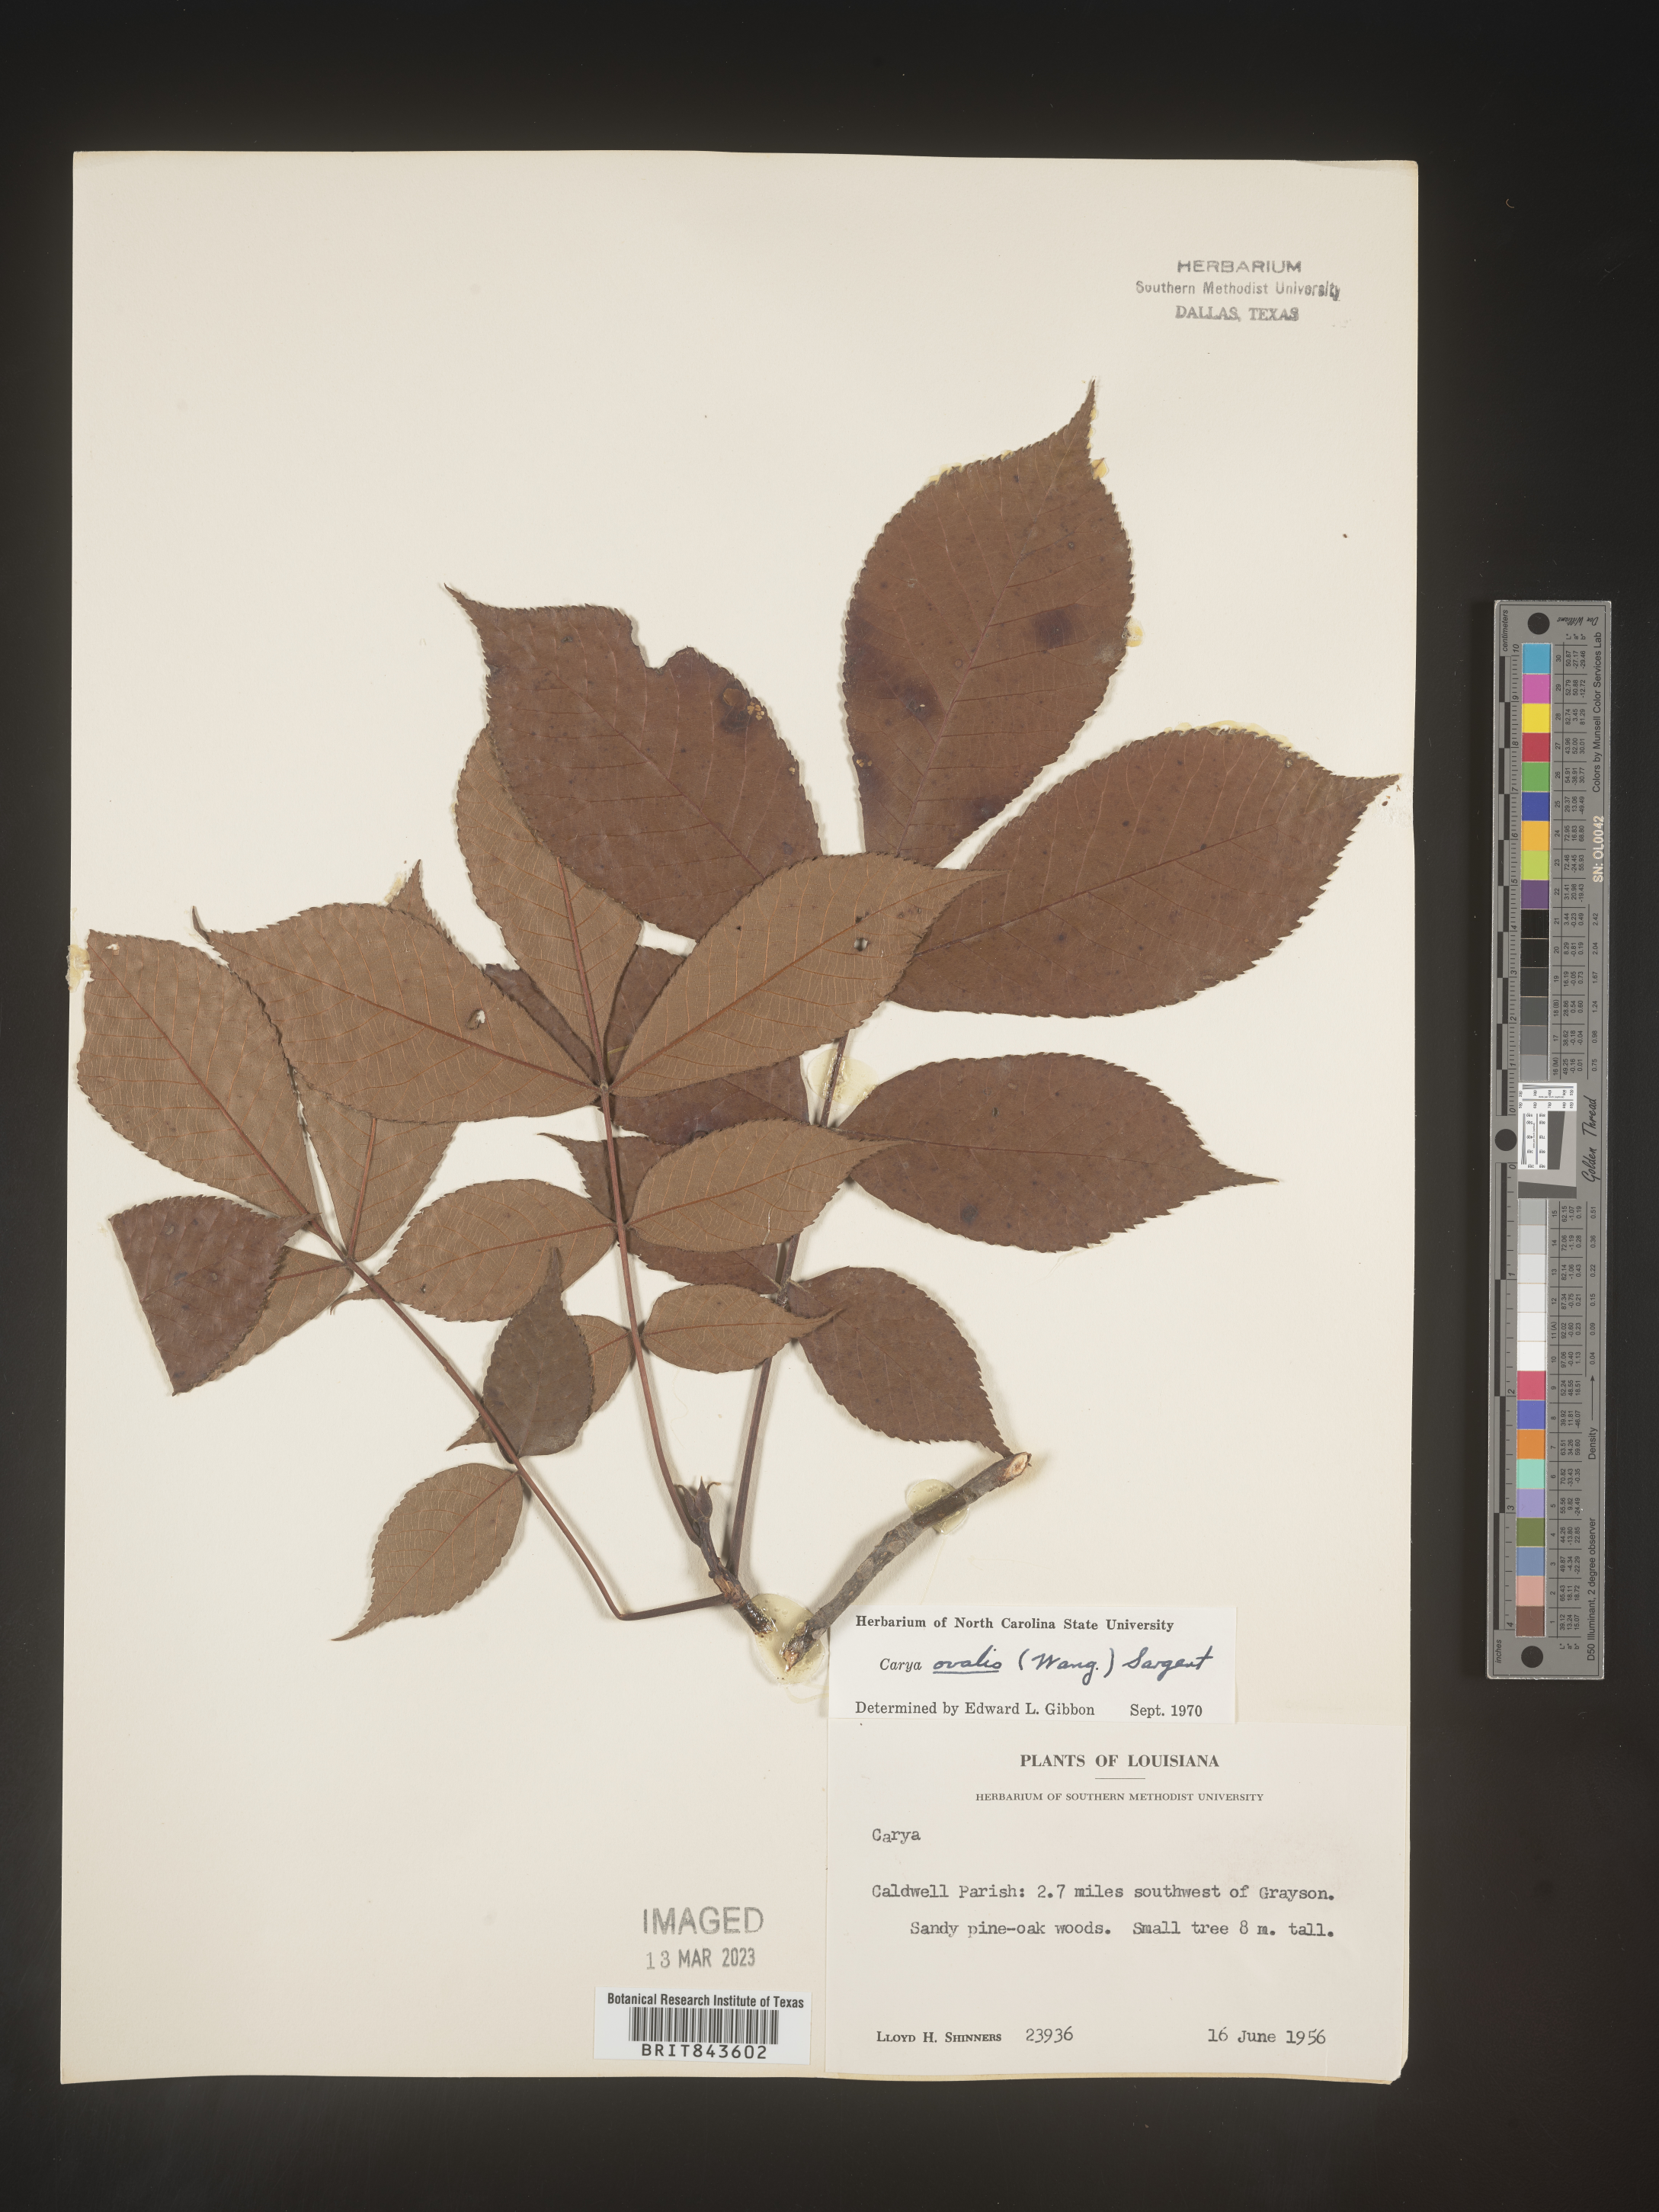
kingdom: Plantae
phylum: Tracheophyta
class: Magnoliopsida
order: Fagales
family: Juglandaceae
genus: Carya
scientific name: Carya ovalis
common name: False shagbark
